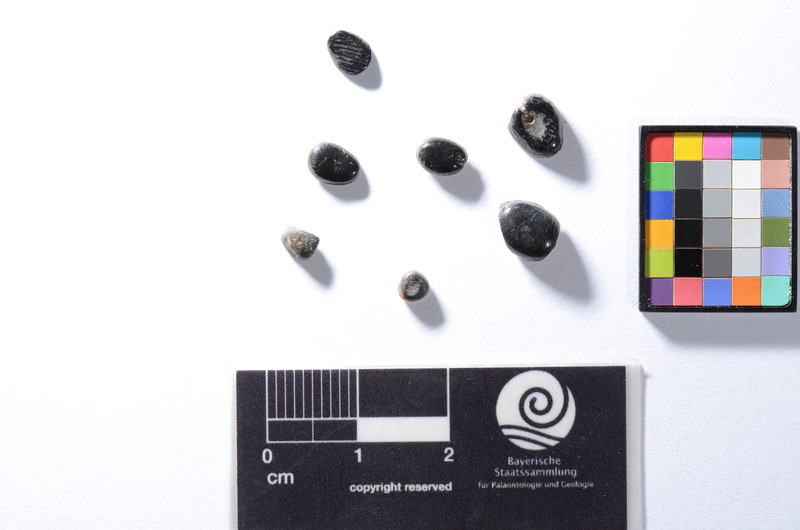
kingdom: Animalia
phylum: Chordata
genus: Sparoides
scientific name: Sparoides
